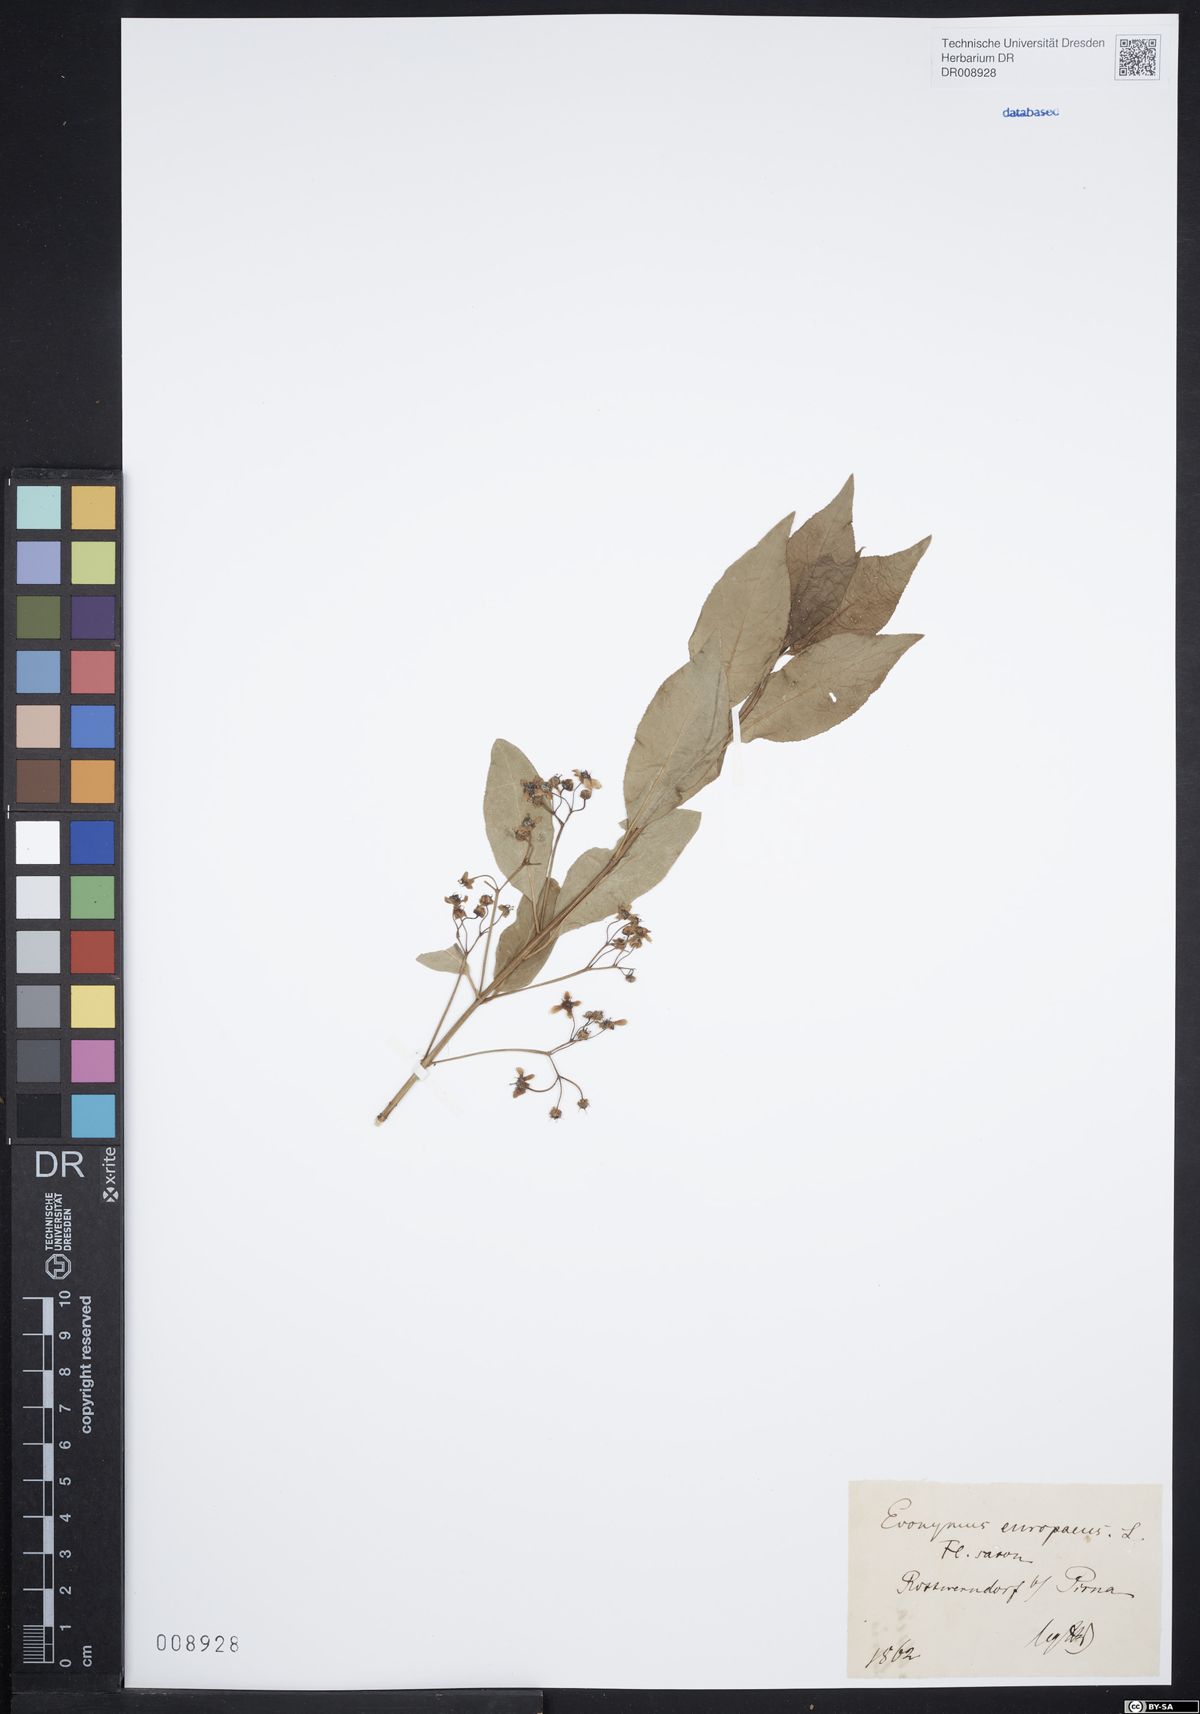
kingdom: Plantae
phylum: Tracheophyta
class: Magnoliopsida
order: Celastrales
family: Celastraceae
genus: Euonymus
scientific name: Euonymus europaeus
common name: Spindle
